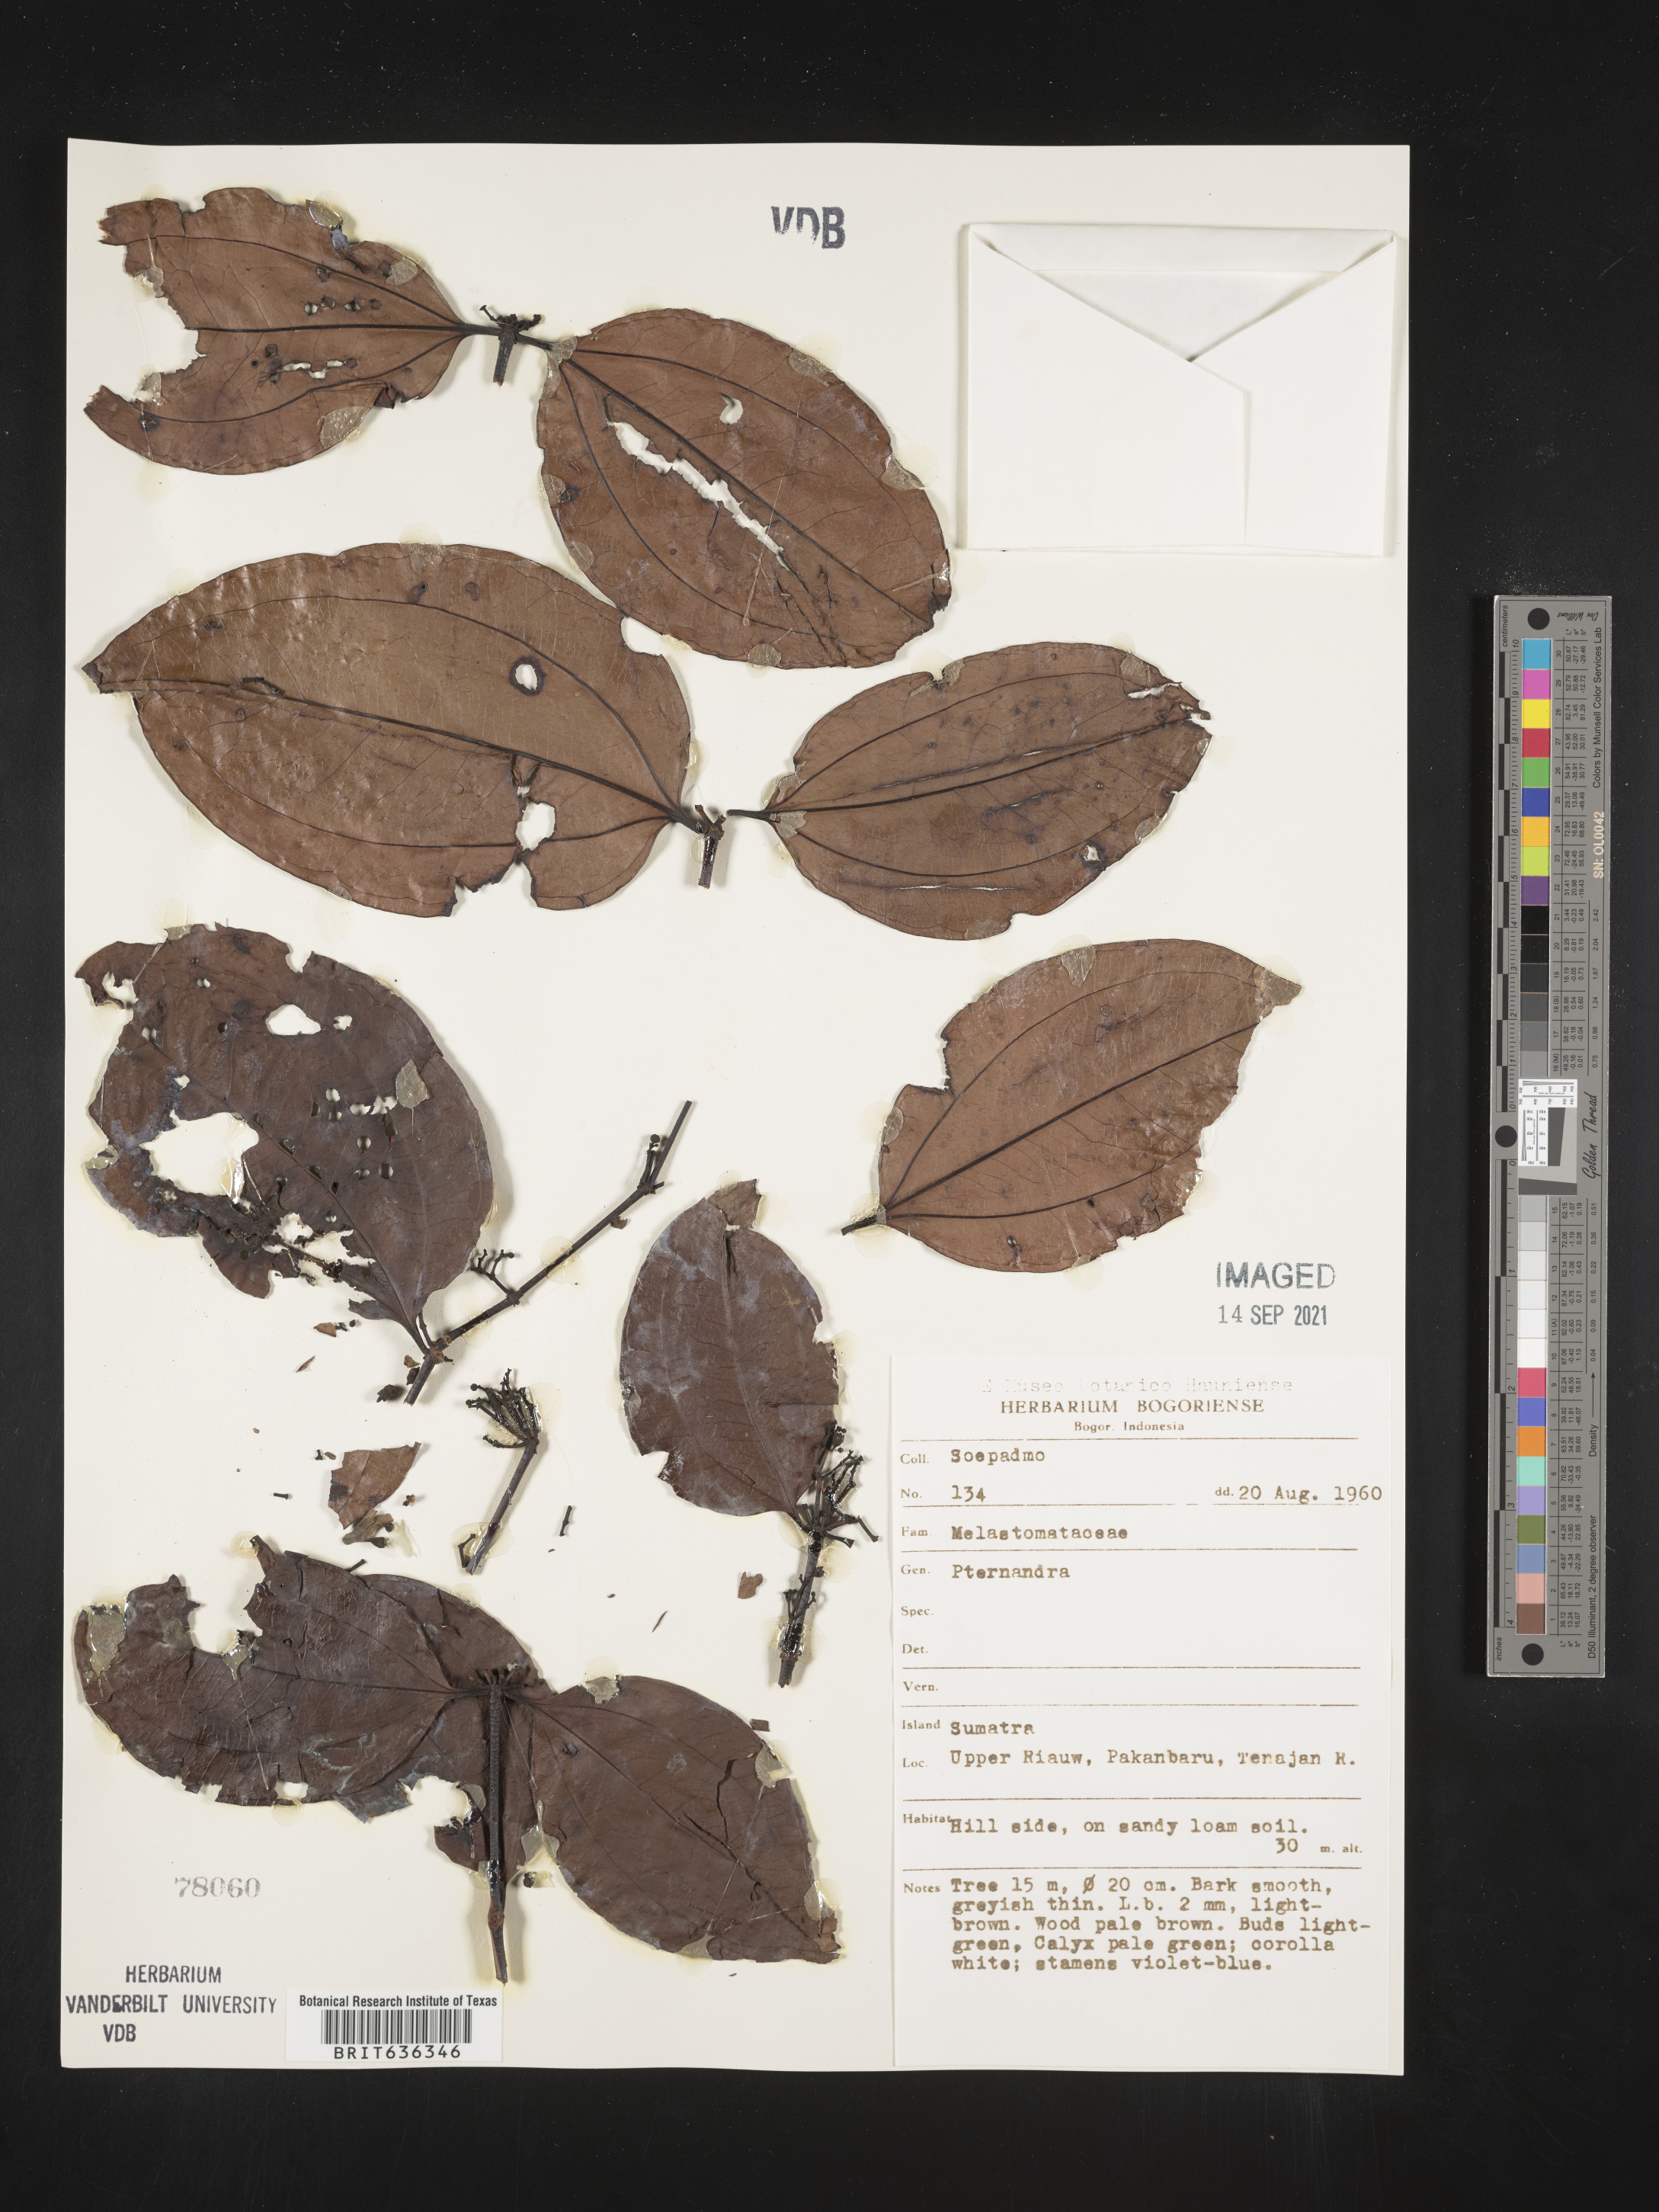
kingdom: Plantae
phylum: Tracheophyta
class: Magnoliopsida
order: Myrtales
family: Melastomataceae
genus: Pternandra
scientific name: Pternandra
